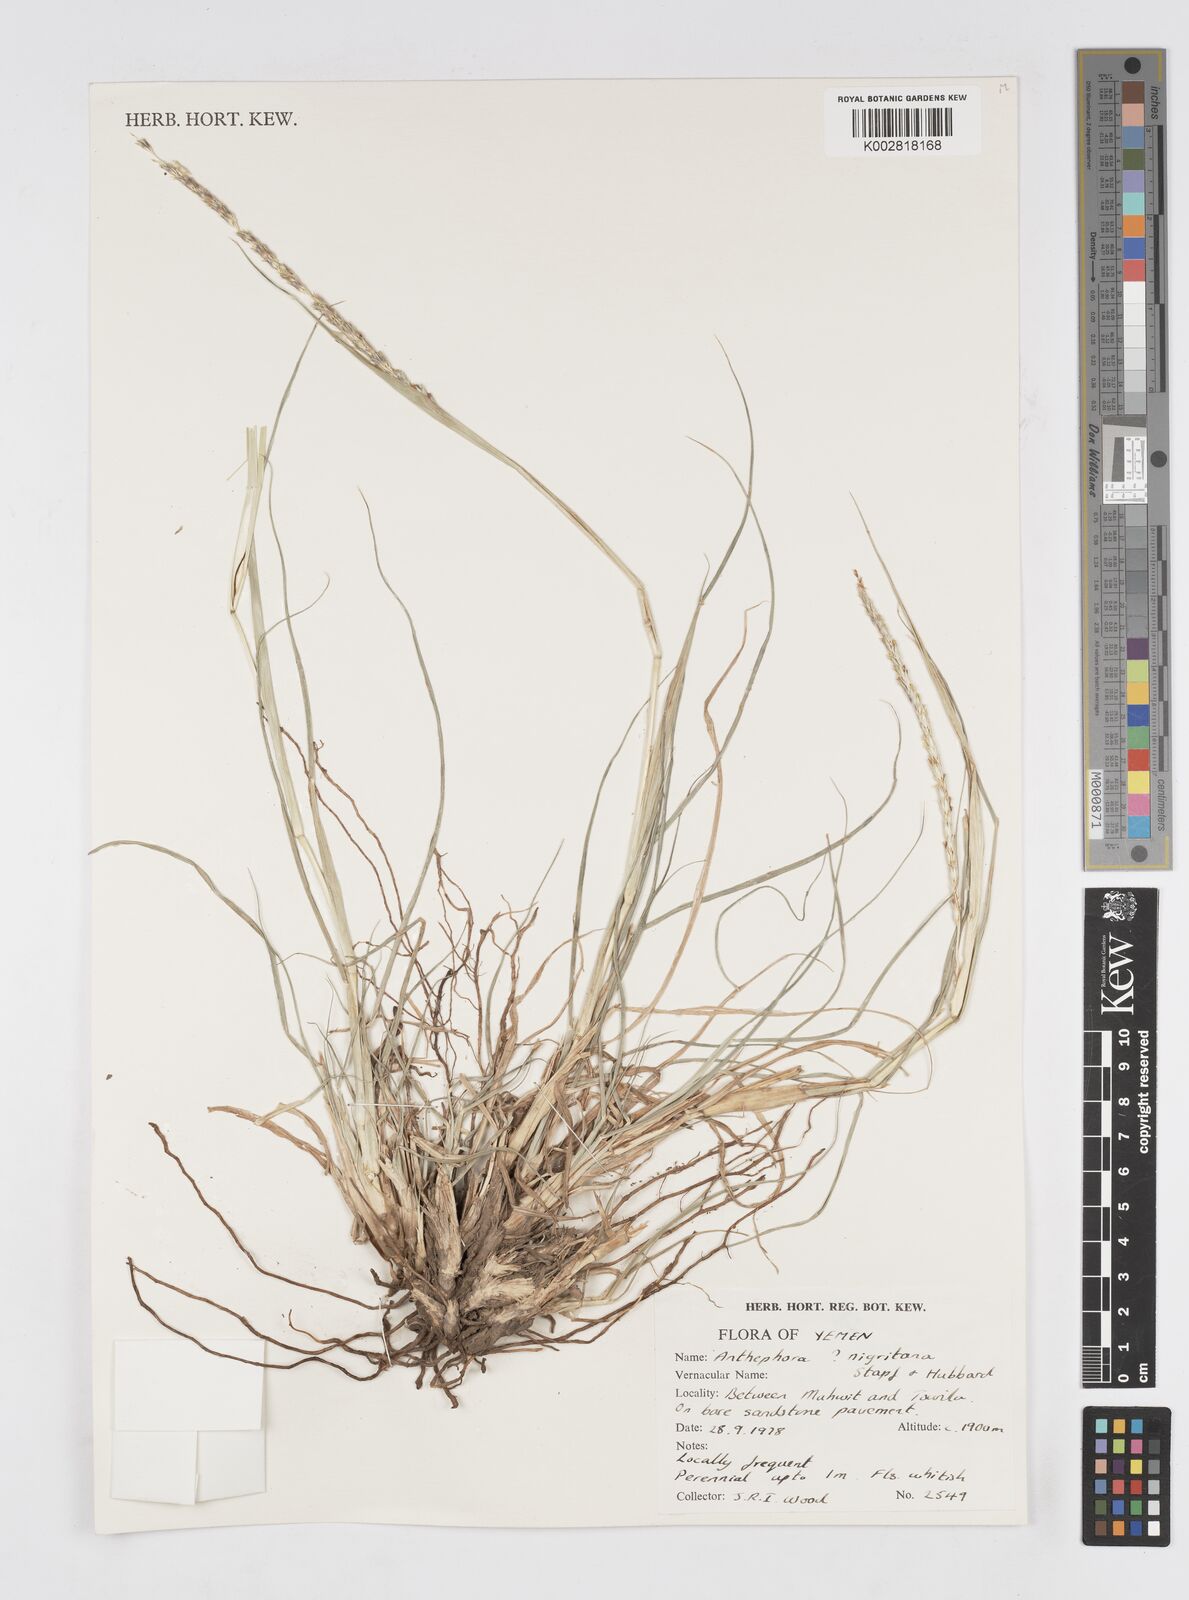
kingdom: Plantae
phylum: Tracheophyta
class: Liliopsida
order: Poales
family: Poaceae
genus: Anthephora
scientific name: Anthephora nigritana
